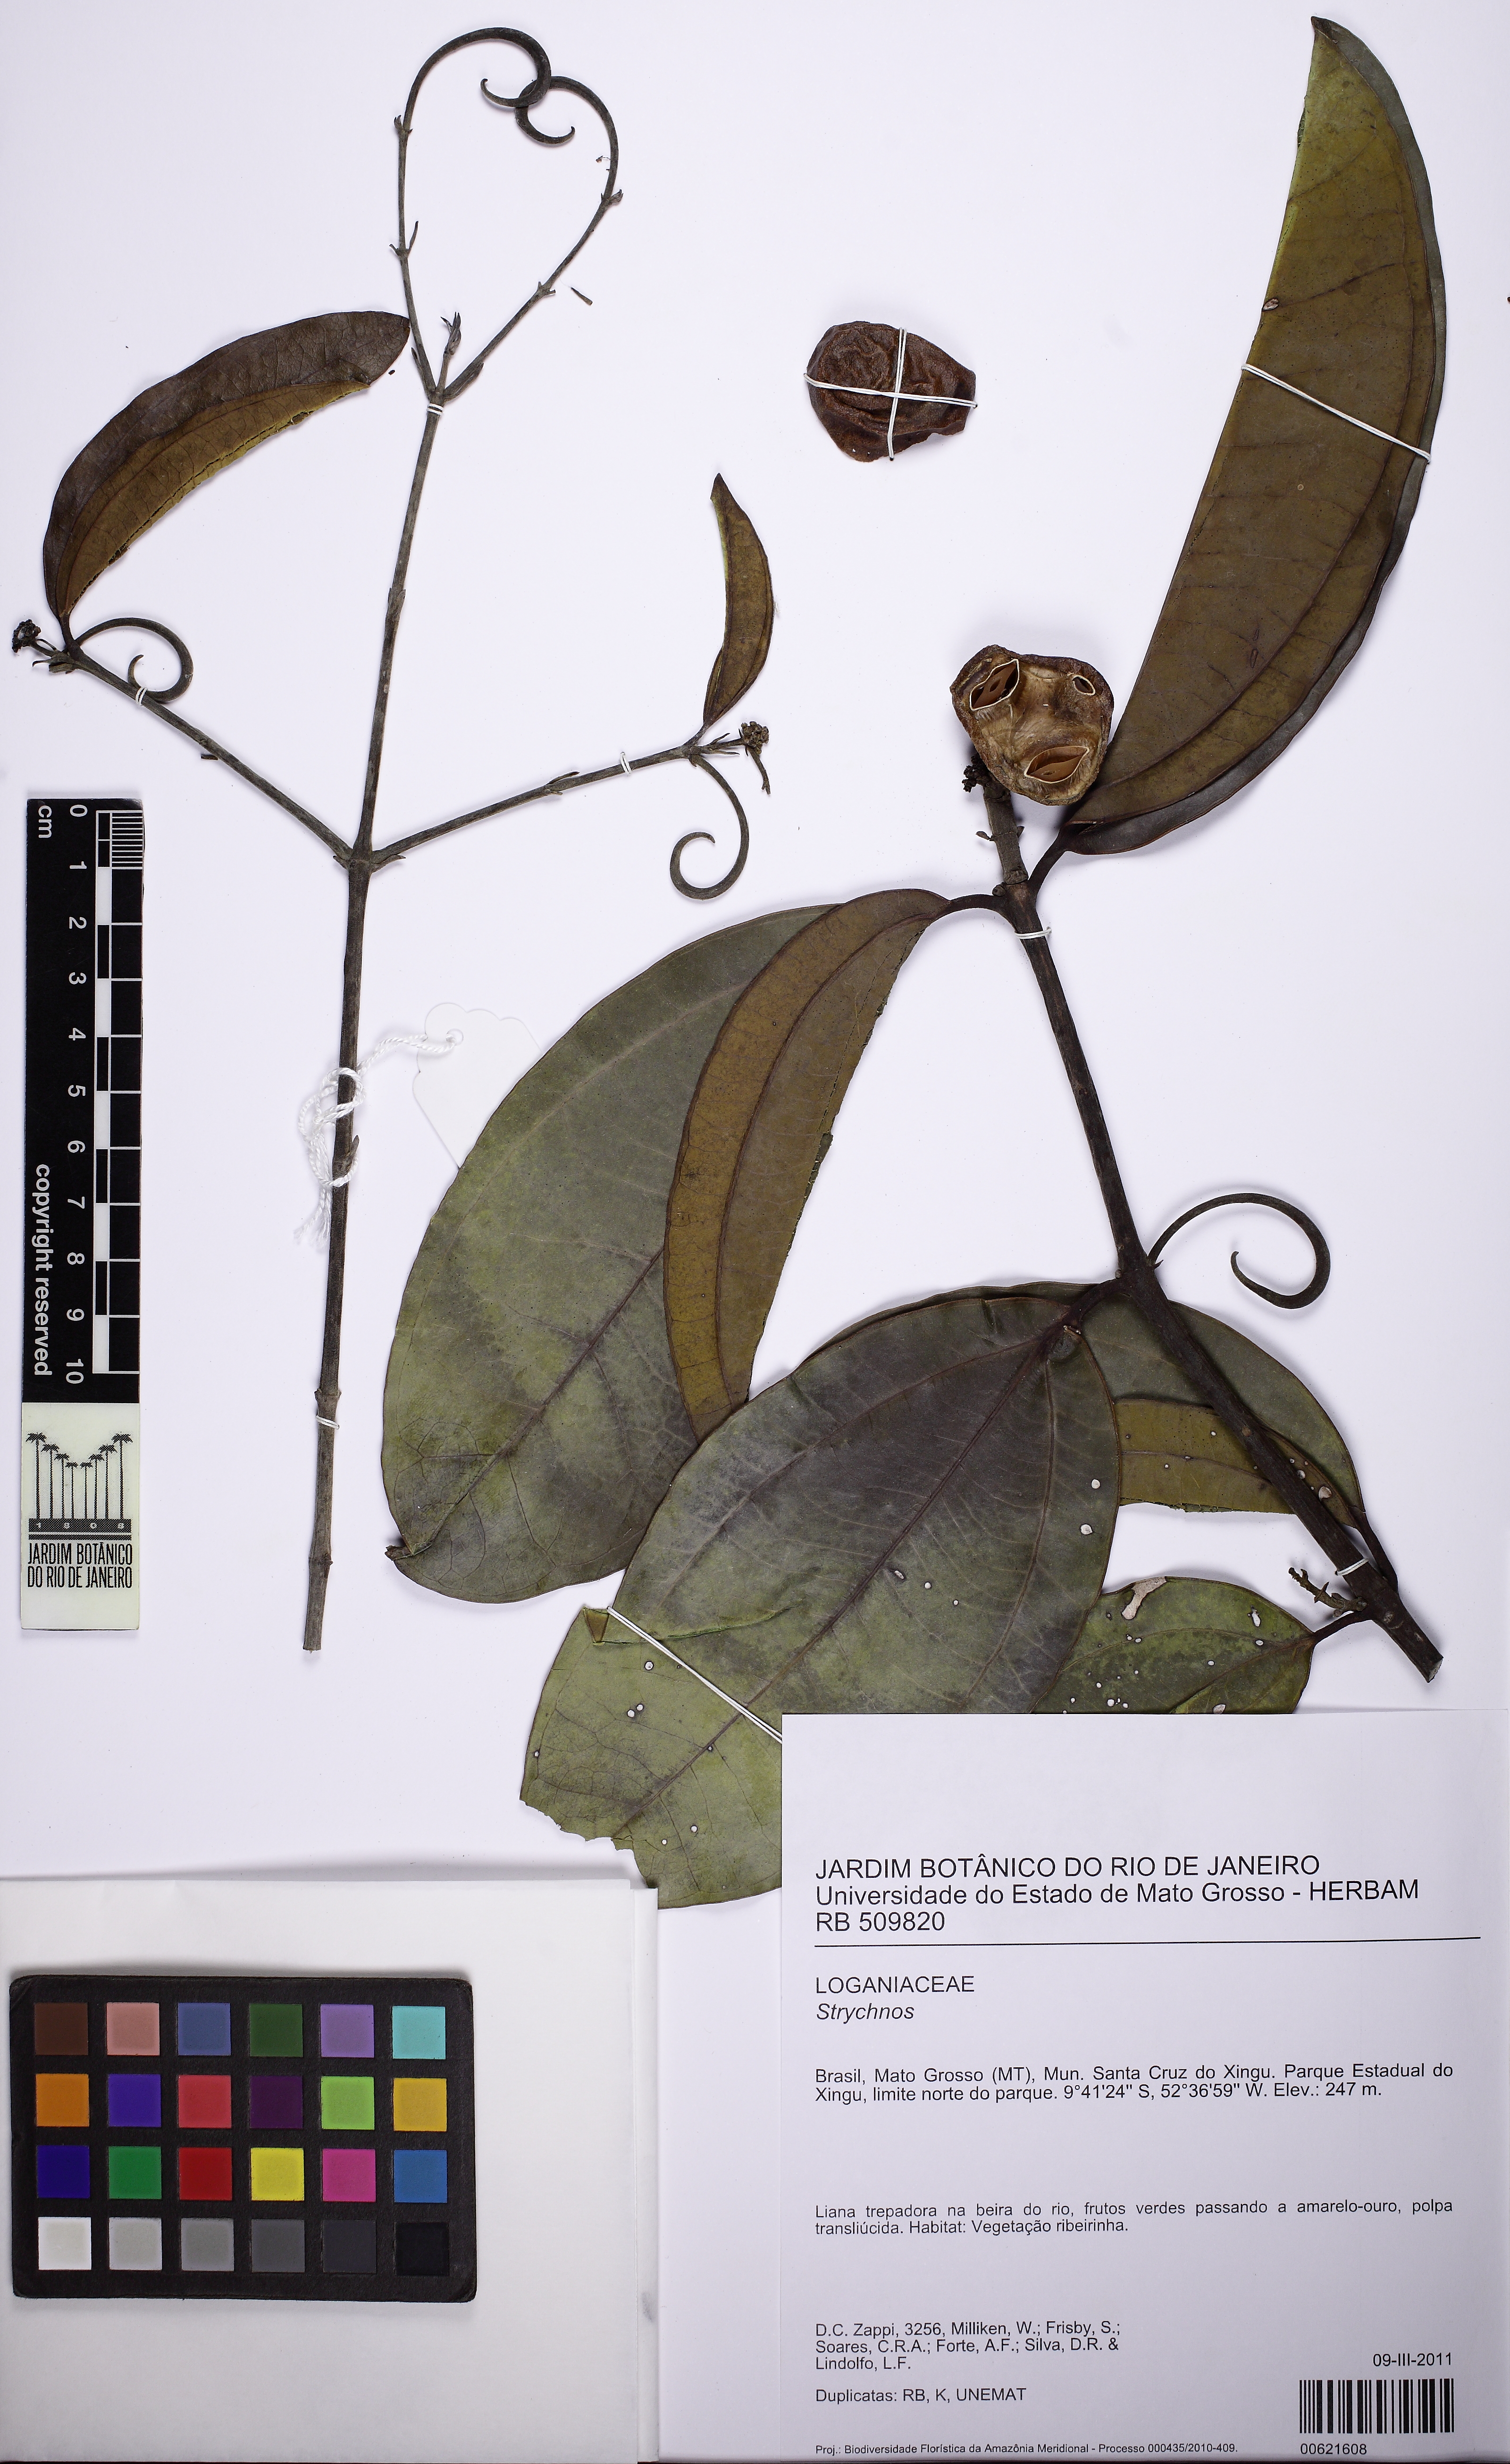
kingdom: Plantae
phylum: Tracheophyta
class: Magnoliopsida
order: Gentianales
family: Loganiaceae
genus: Strychnos
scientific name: Strychnos araguaensis
